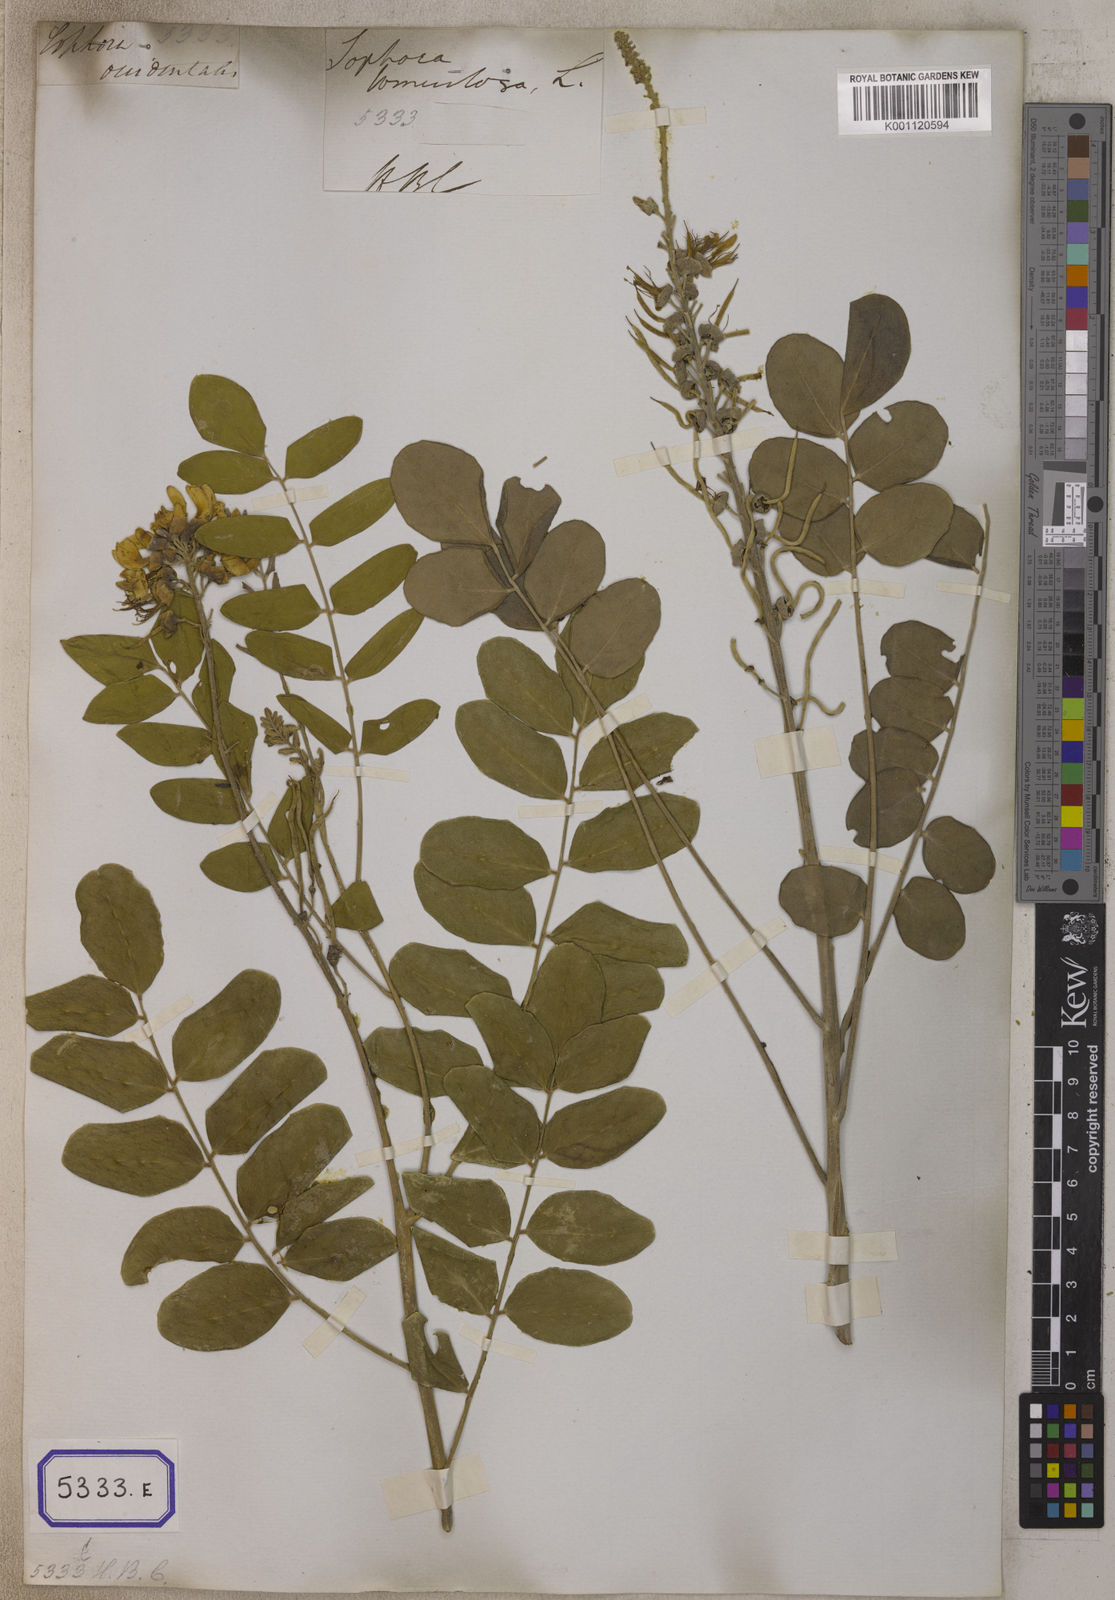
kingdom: Plantae
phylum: Tracheophyta
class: Magnoliopsida
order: Fabales
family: Fabaceae
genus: Sophora
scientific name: Sophora tomentosa
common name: Yellow necklacepod
